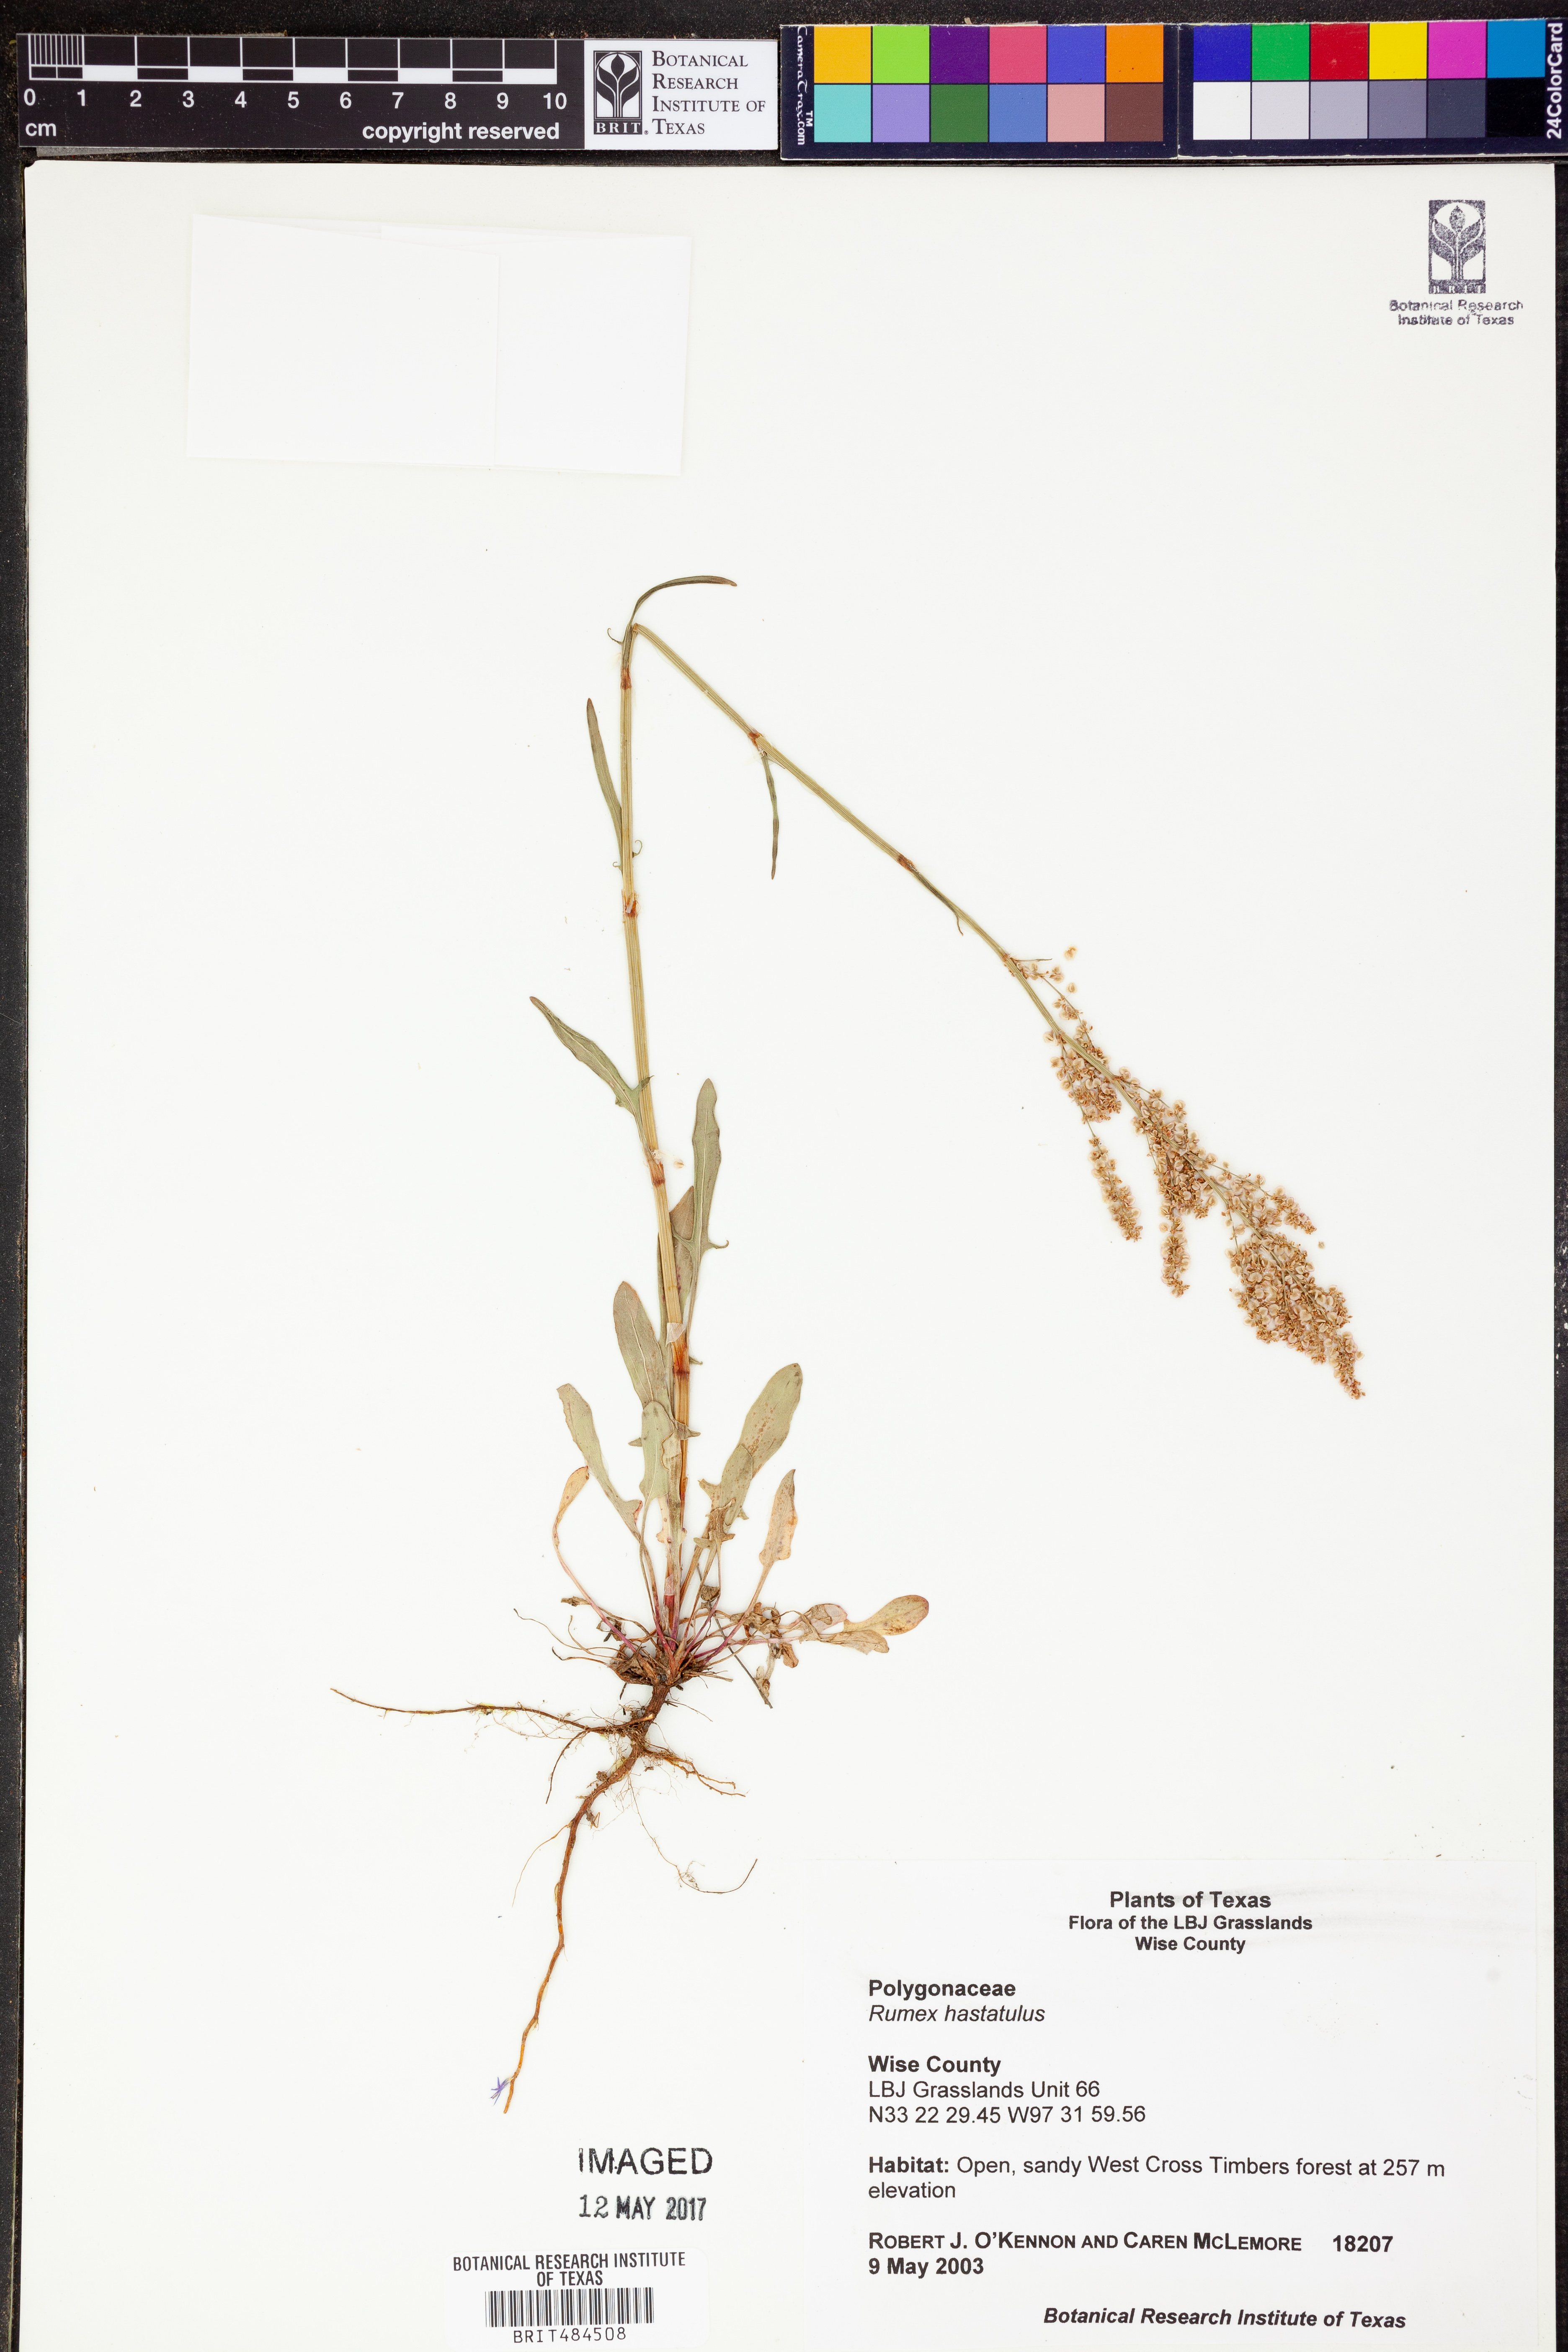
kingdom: Plantae
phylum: Tracheophyta
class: Magnoliopsida
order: Caryophyllales
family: Polygonaceae
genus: Rumex
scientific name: Rumex hastatulus
